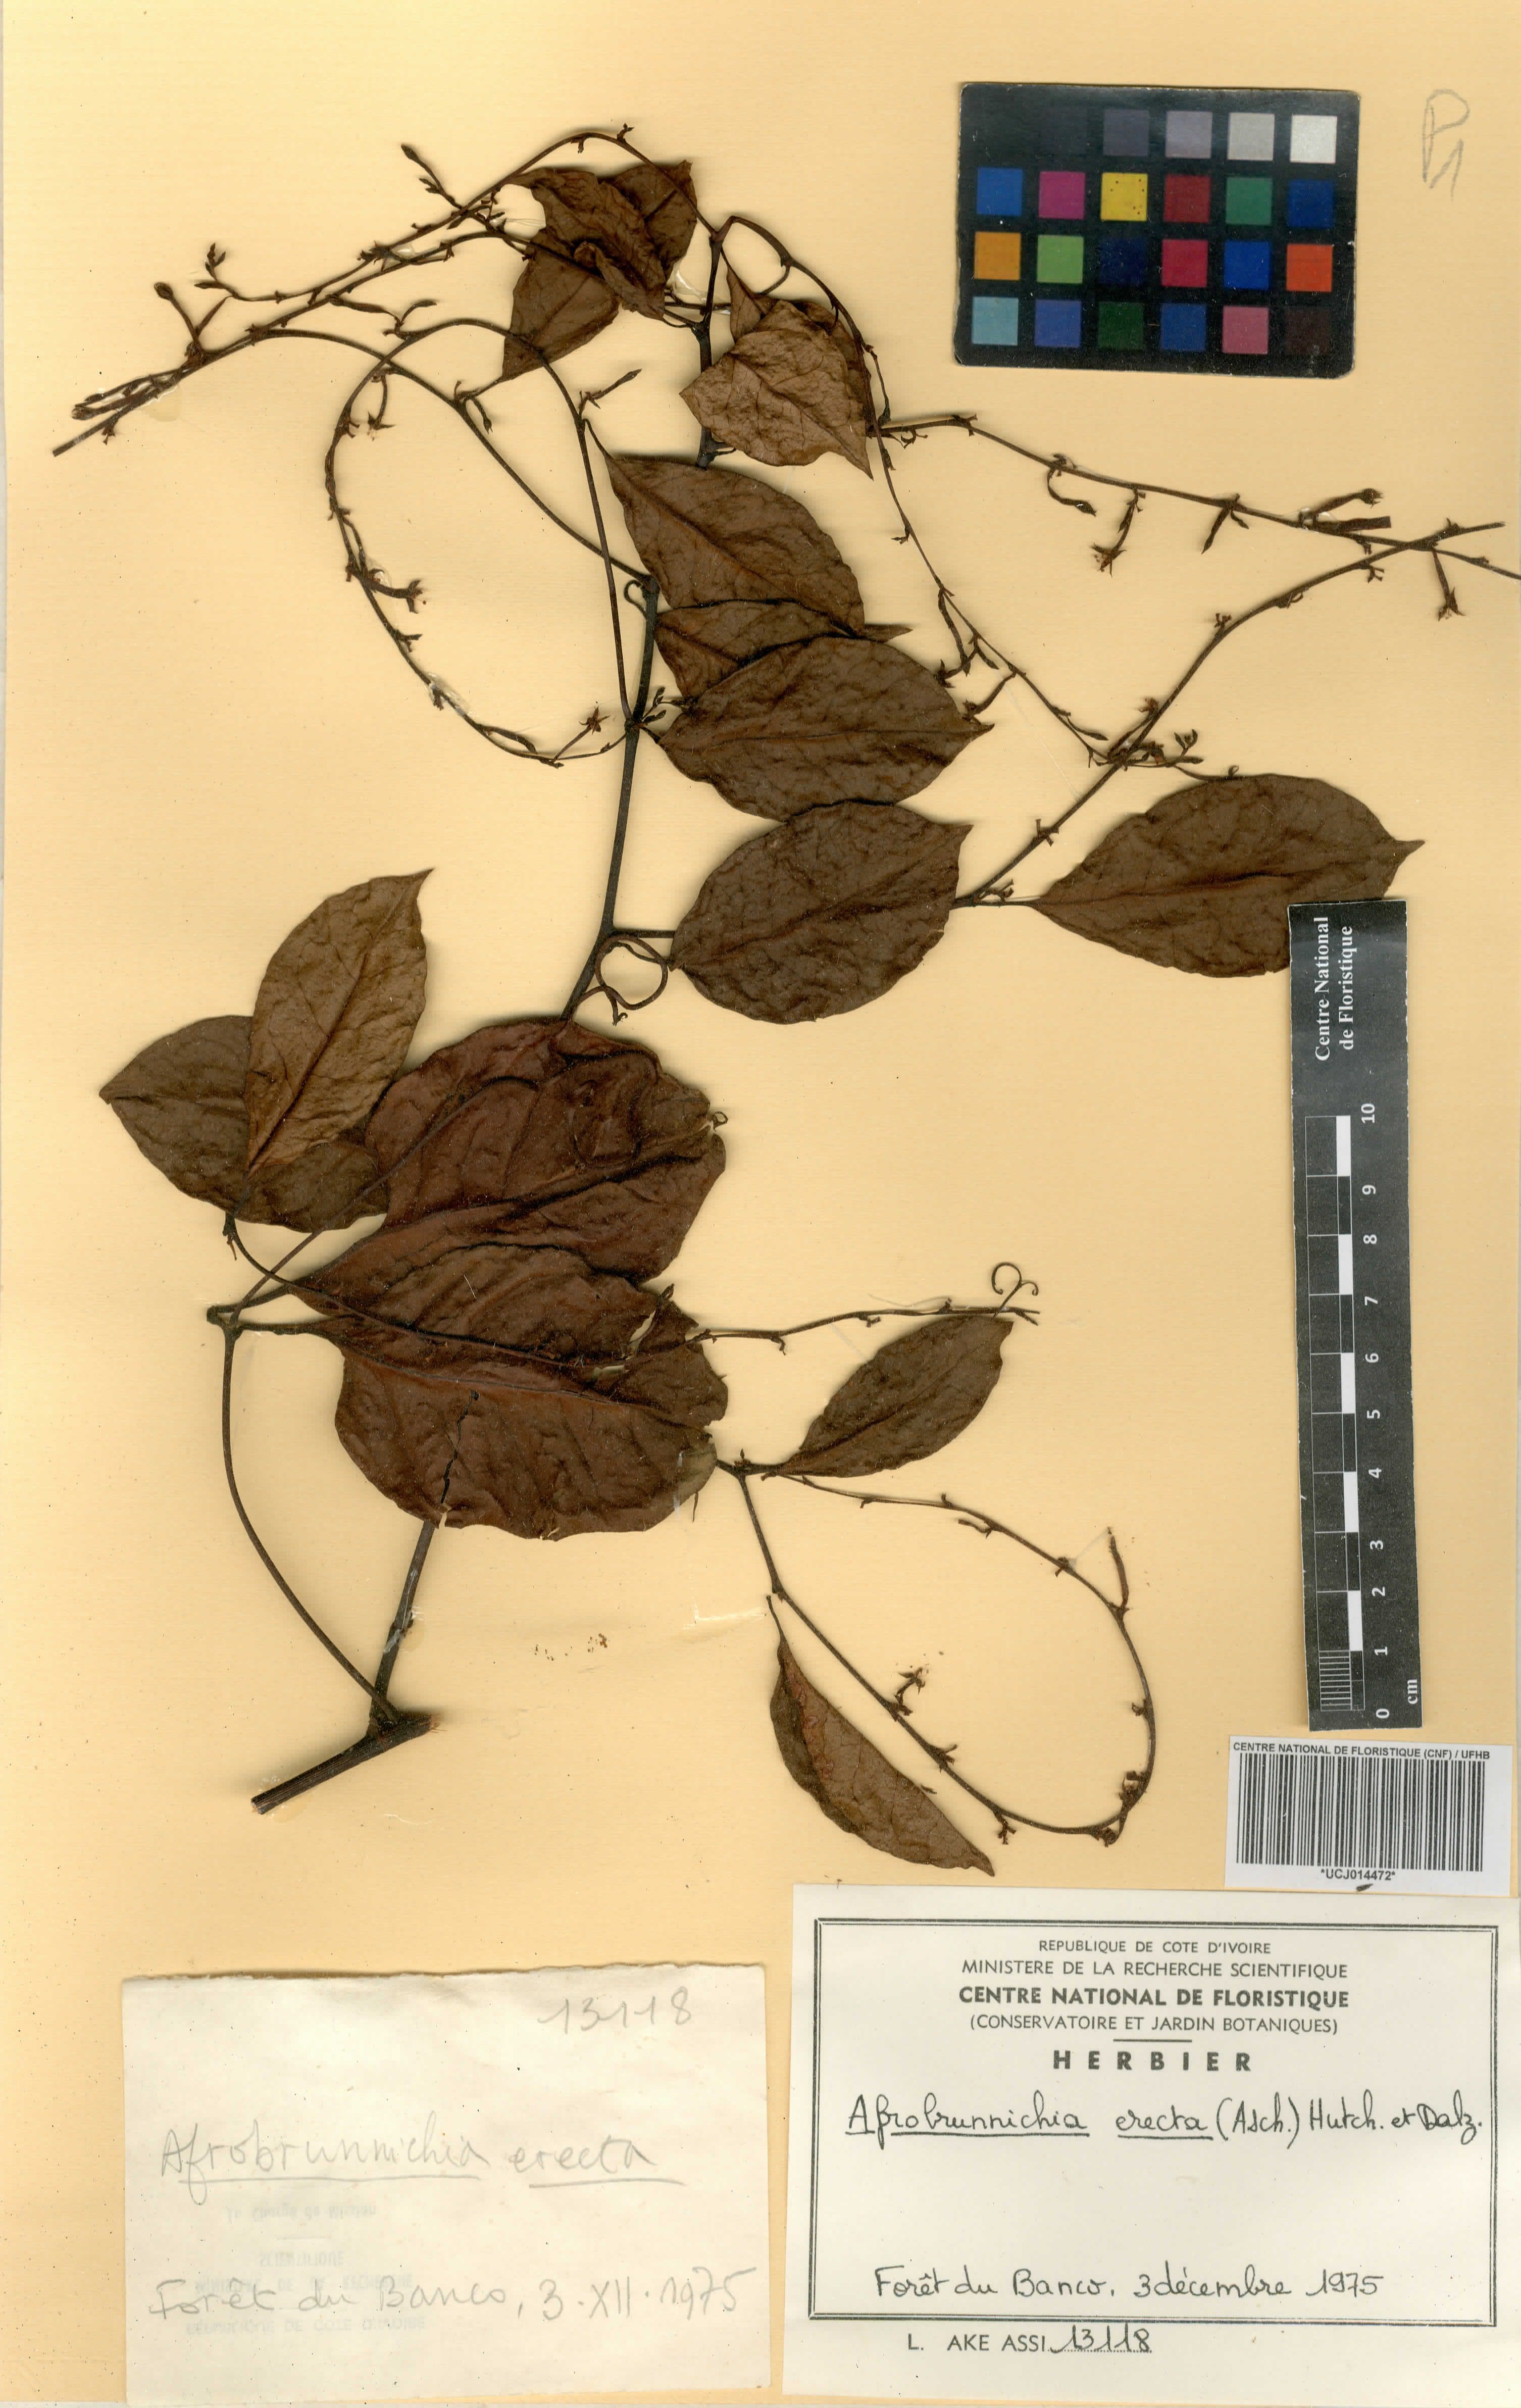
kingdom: Plantae
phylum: Tracheophyta
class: Magnoliopsida
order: Caryophyllales
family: Polygonaceae
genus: Afrobrunnichia
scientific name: Afrobrunnichia erecta
